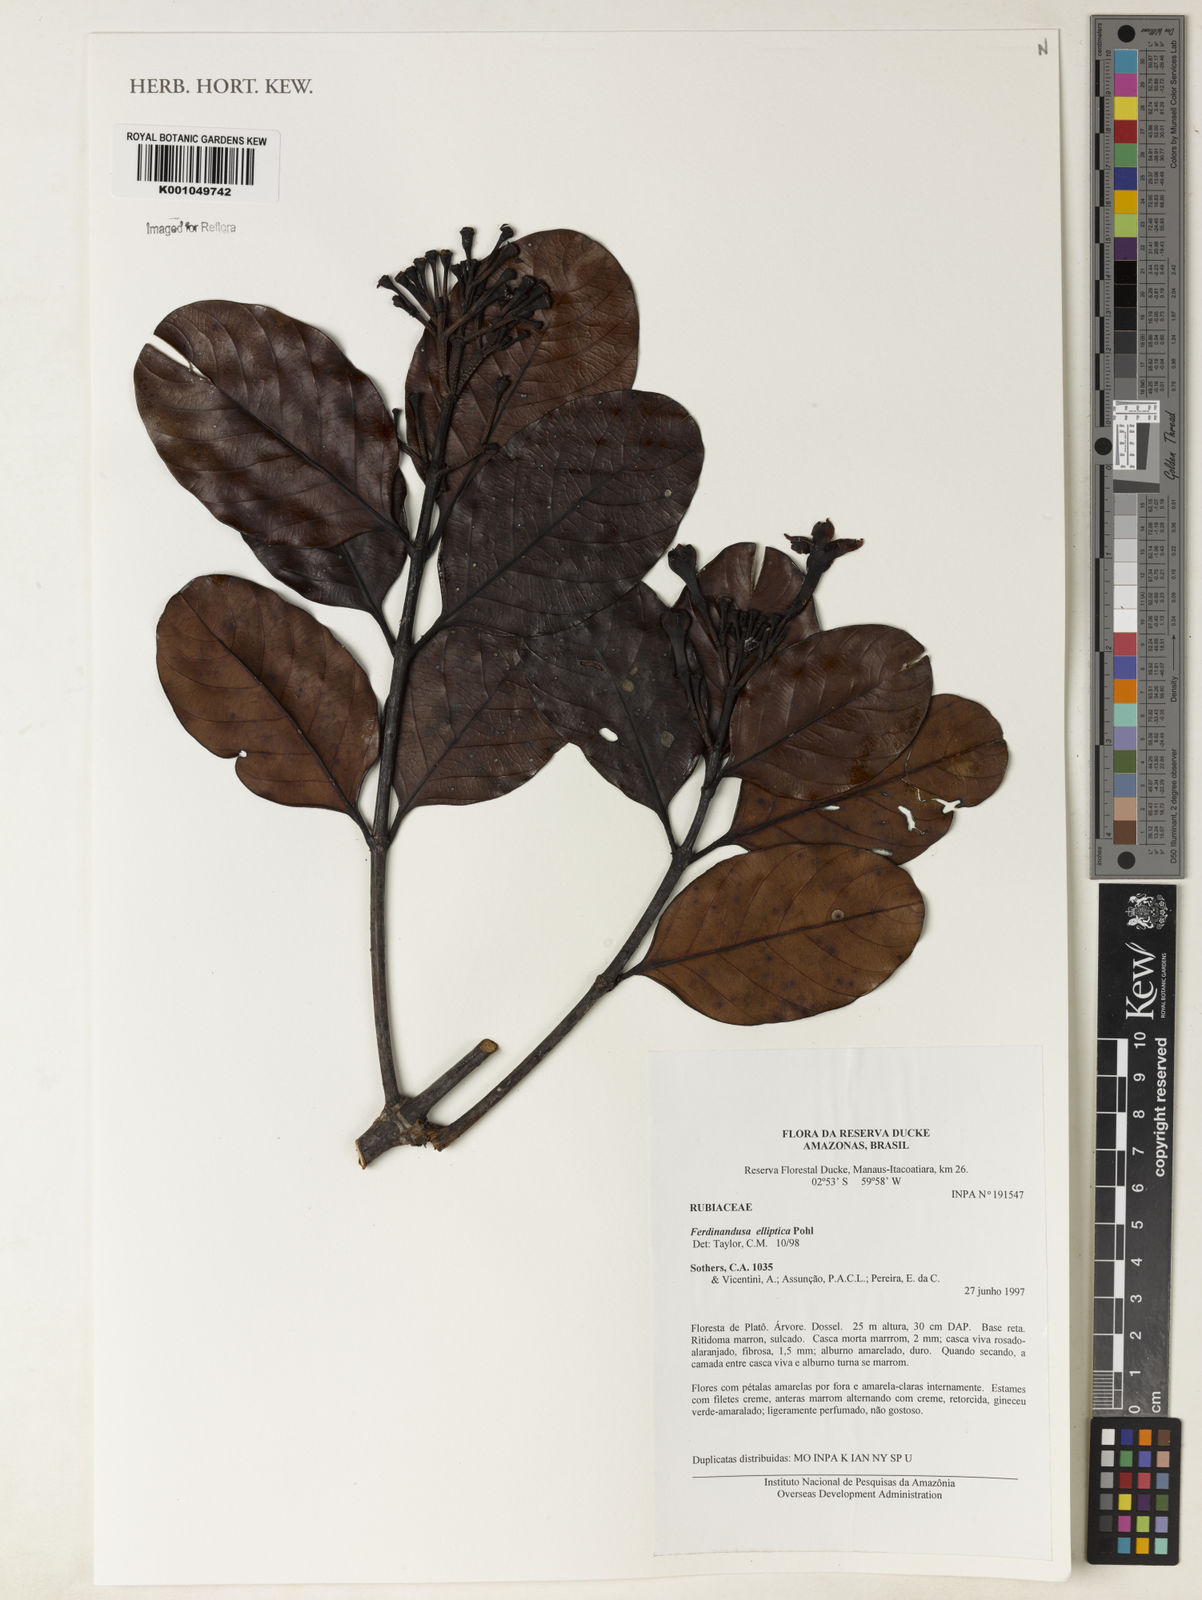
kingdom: Plantae
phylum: Tracheophyta
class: Magnoliopsida
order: Gentianales
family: Rubiaceae
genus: Ferdinandusa
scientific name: Ferdinandusa elliptica
